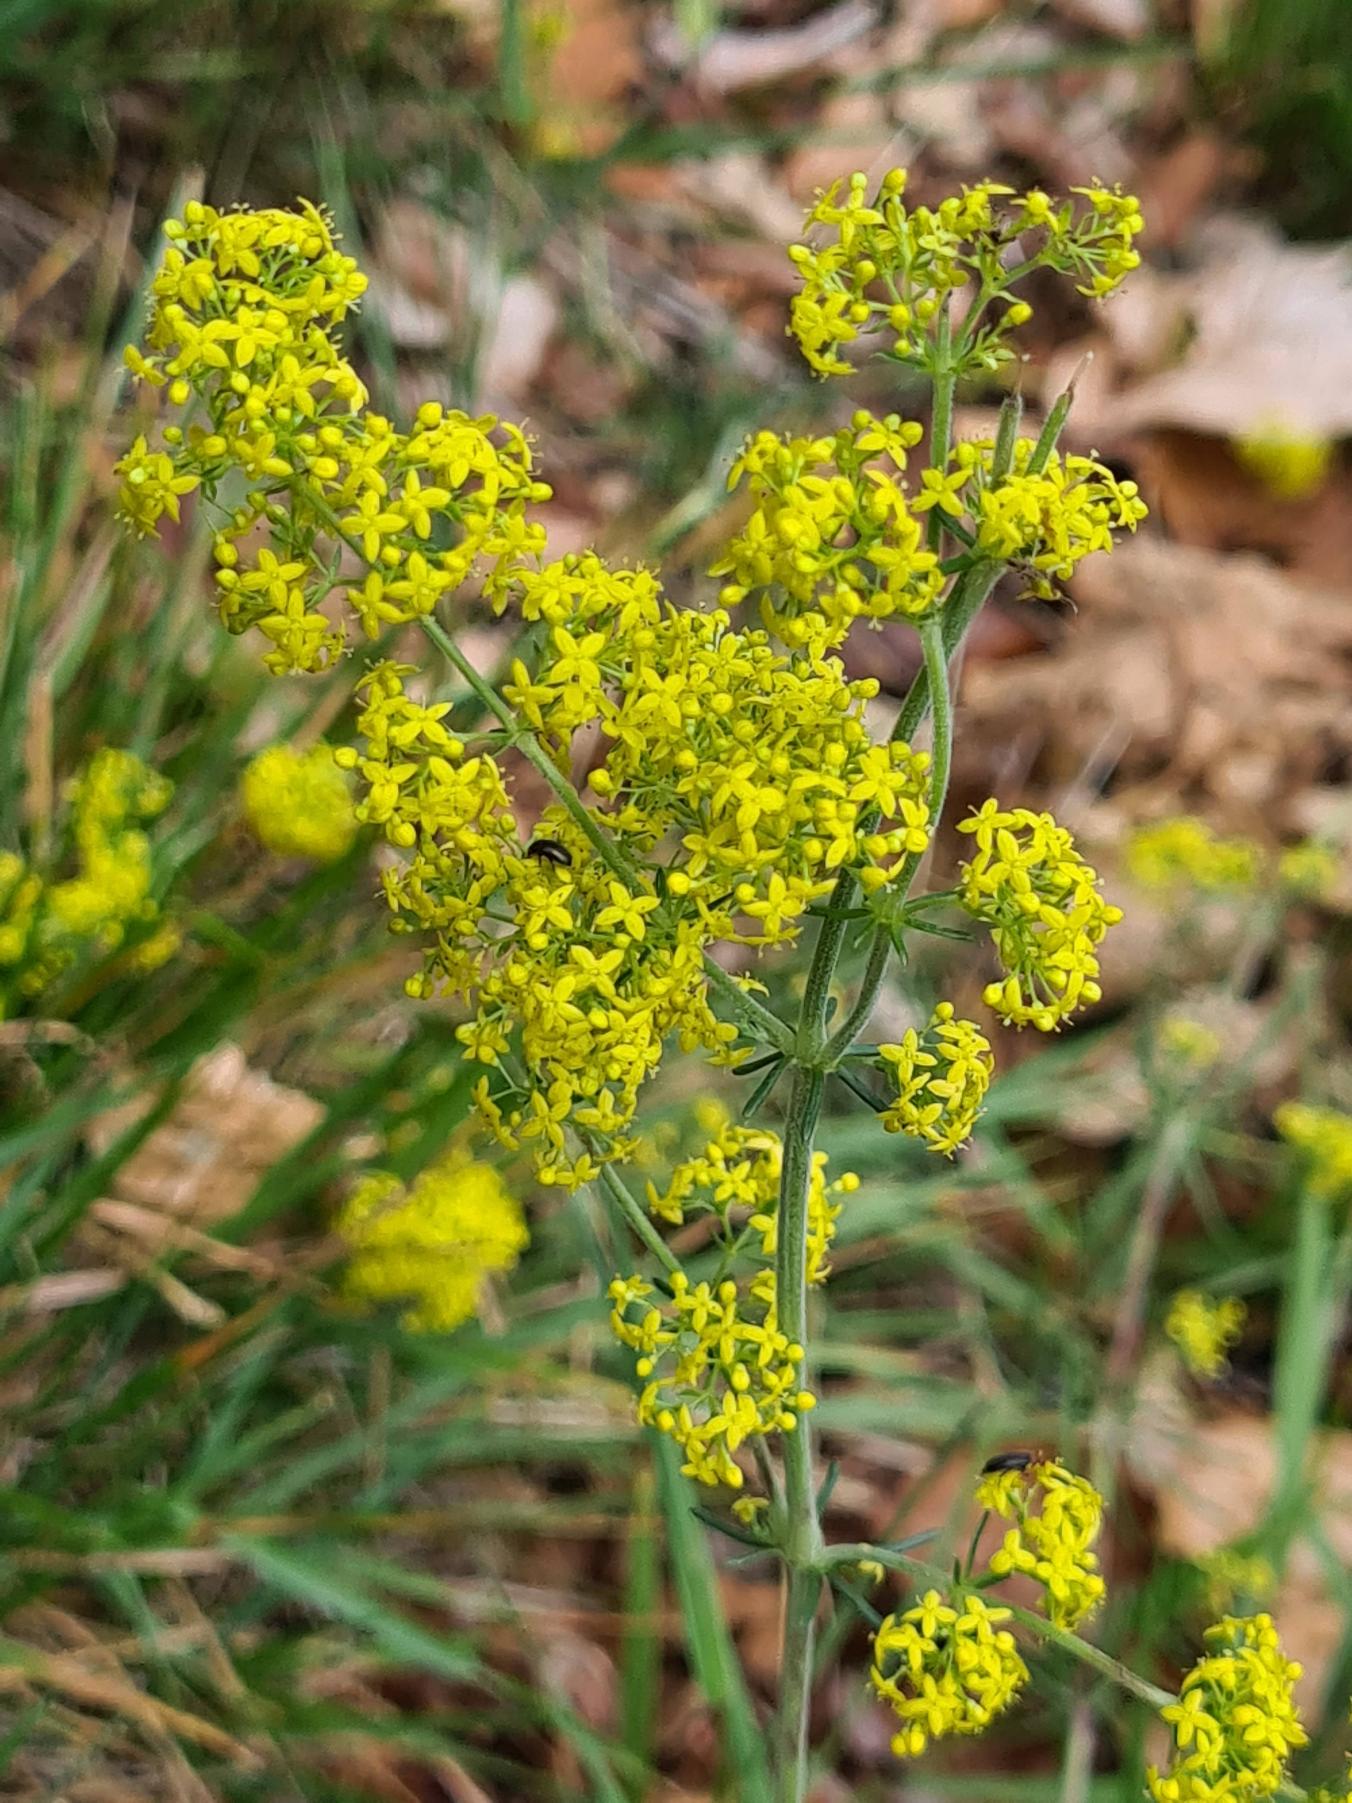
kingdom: Plantae
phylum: Tracheophyta
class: Magnoliopsida
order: Gentianales
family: Rubiaceae
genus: Galium
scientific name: Galium verum
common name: Gul snerre
